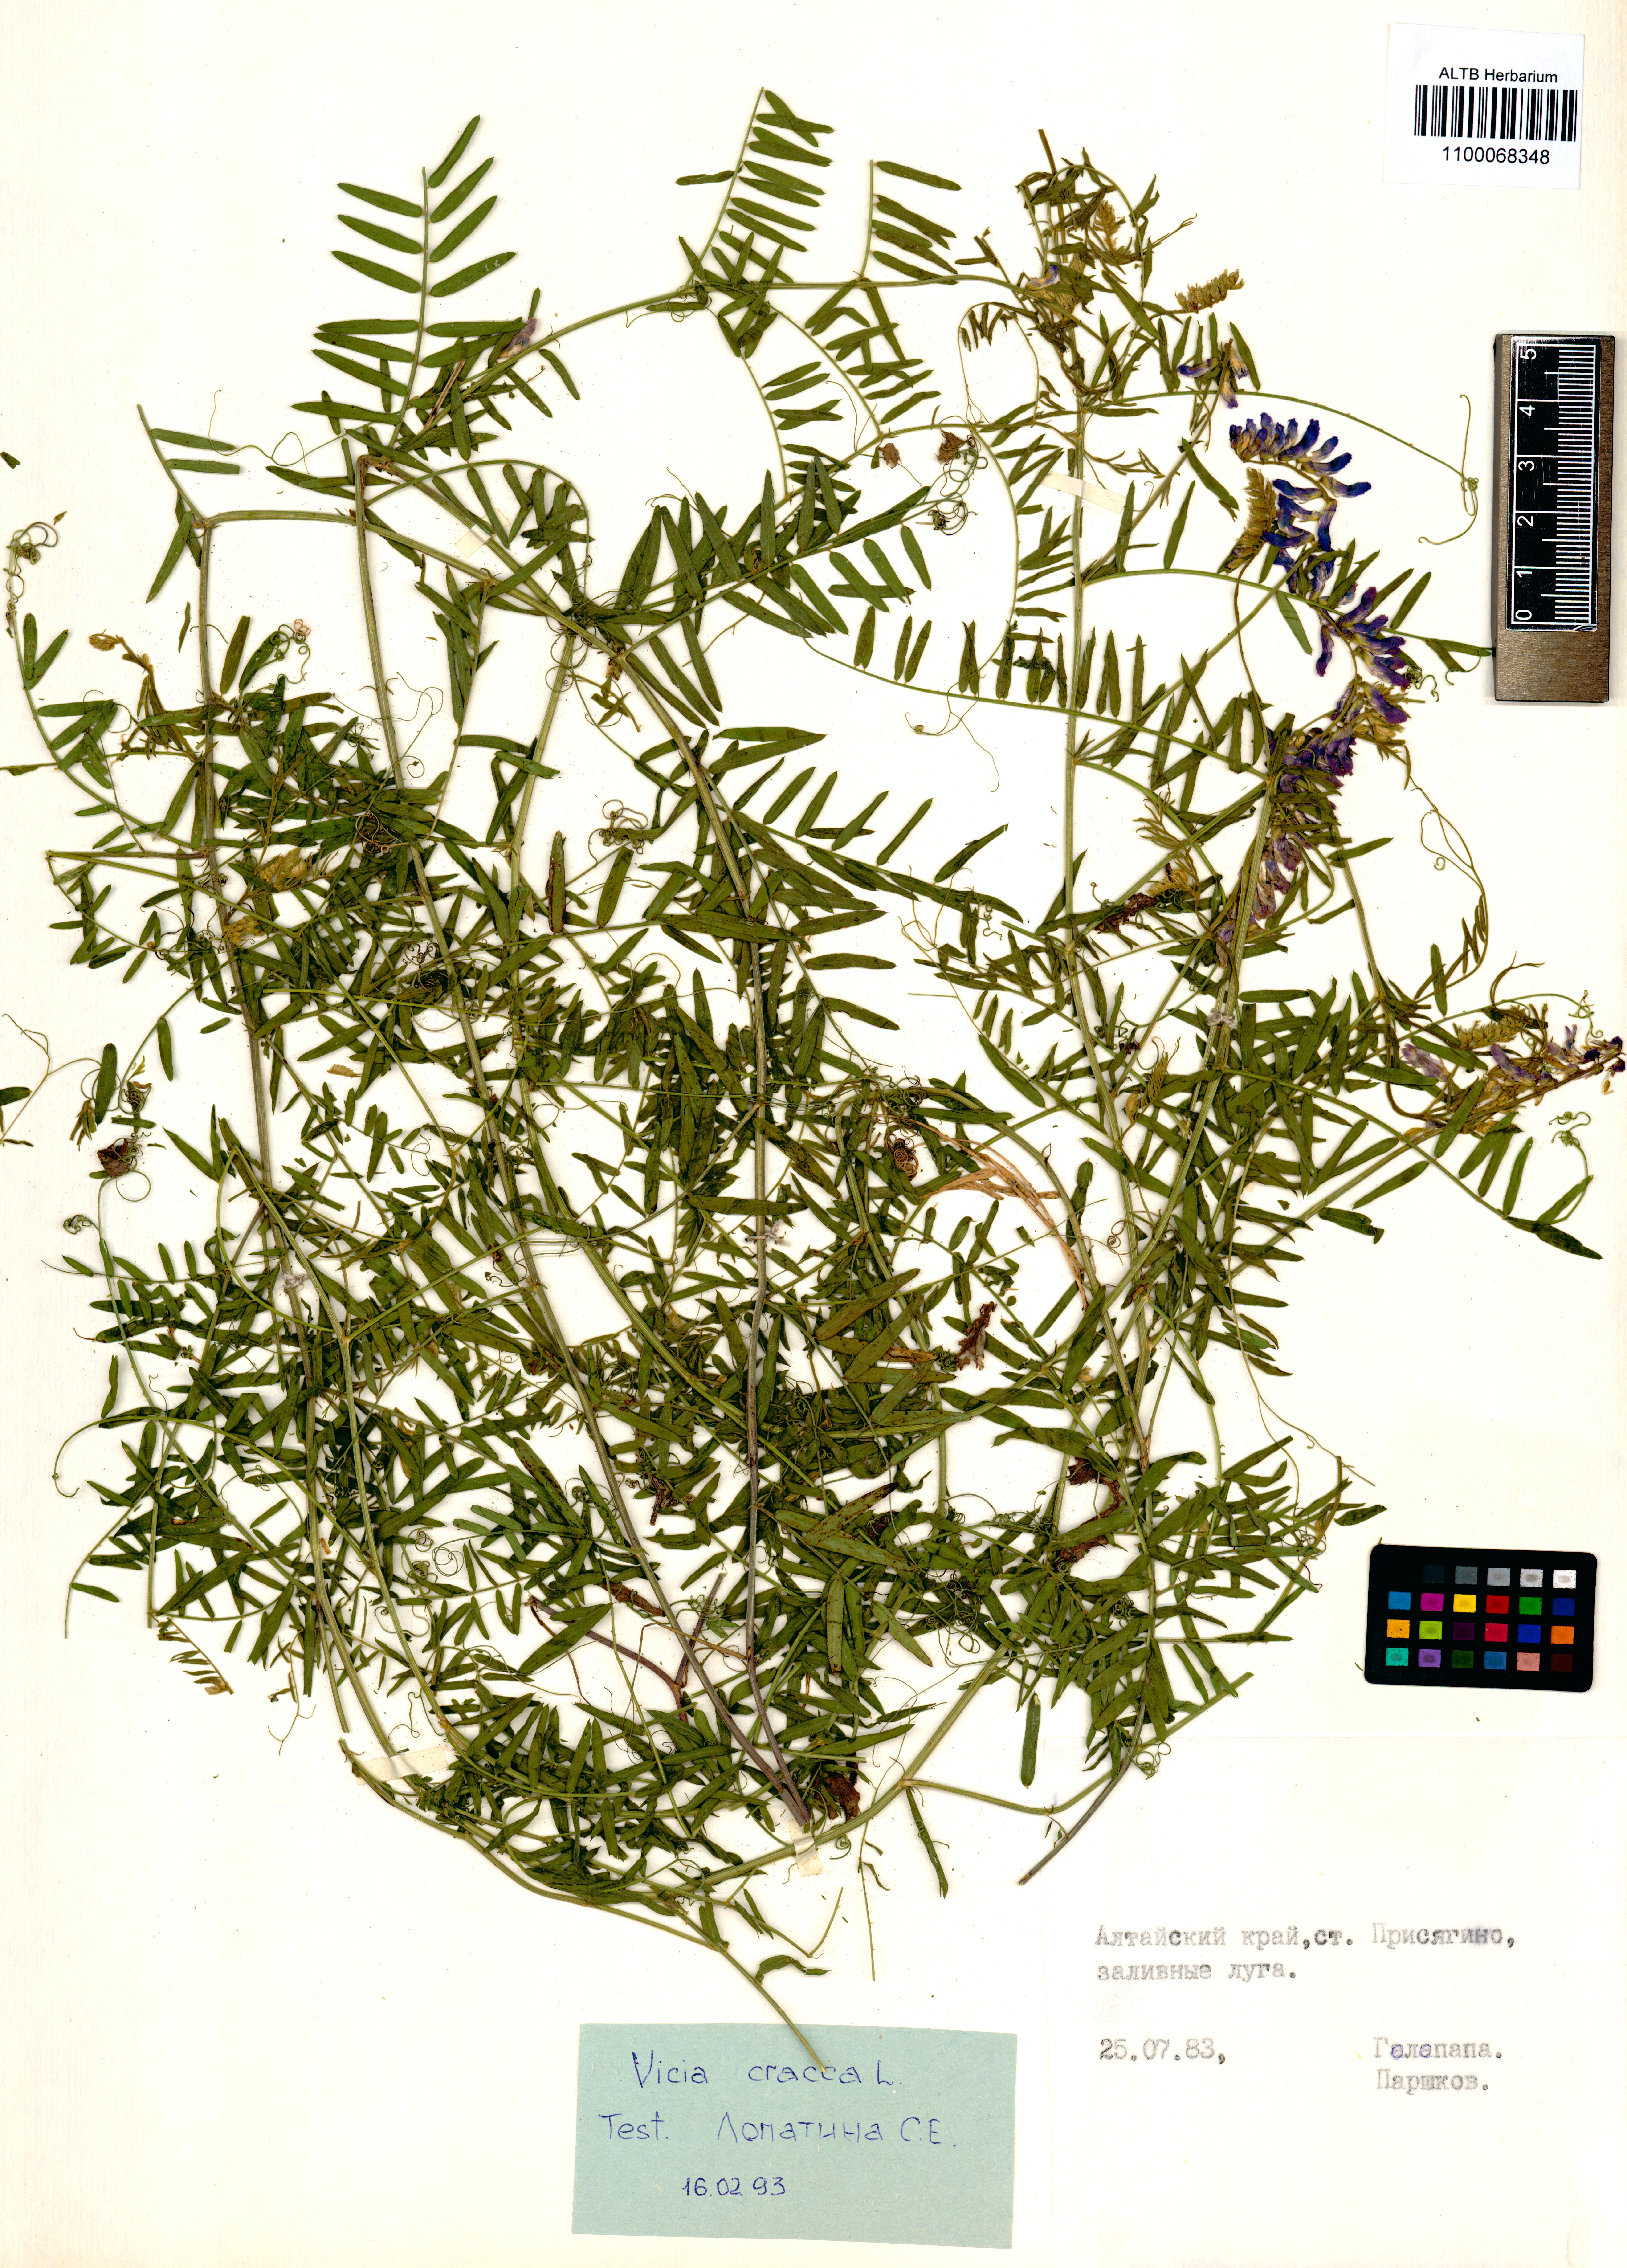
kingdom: Plantae
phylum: Tracheophyta
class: Magnoliopsida
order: Fabales
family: Fabaceae
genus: Vicia
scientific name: Vicia cracca
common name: Bird vetch
